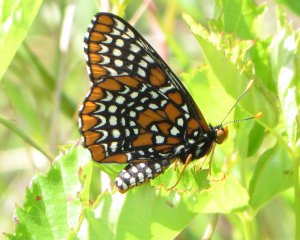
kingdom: Animalia
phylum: Arthropoda
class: Insecta
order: Lepidoptera
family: Nymphalidae
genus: Euphydryas
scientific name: Euphydryas phaeton
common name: Baltimore Checkerspot
